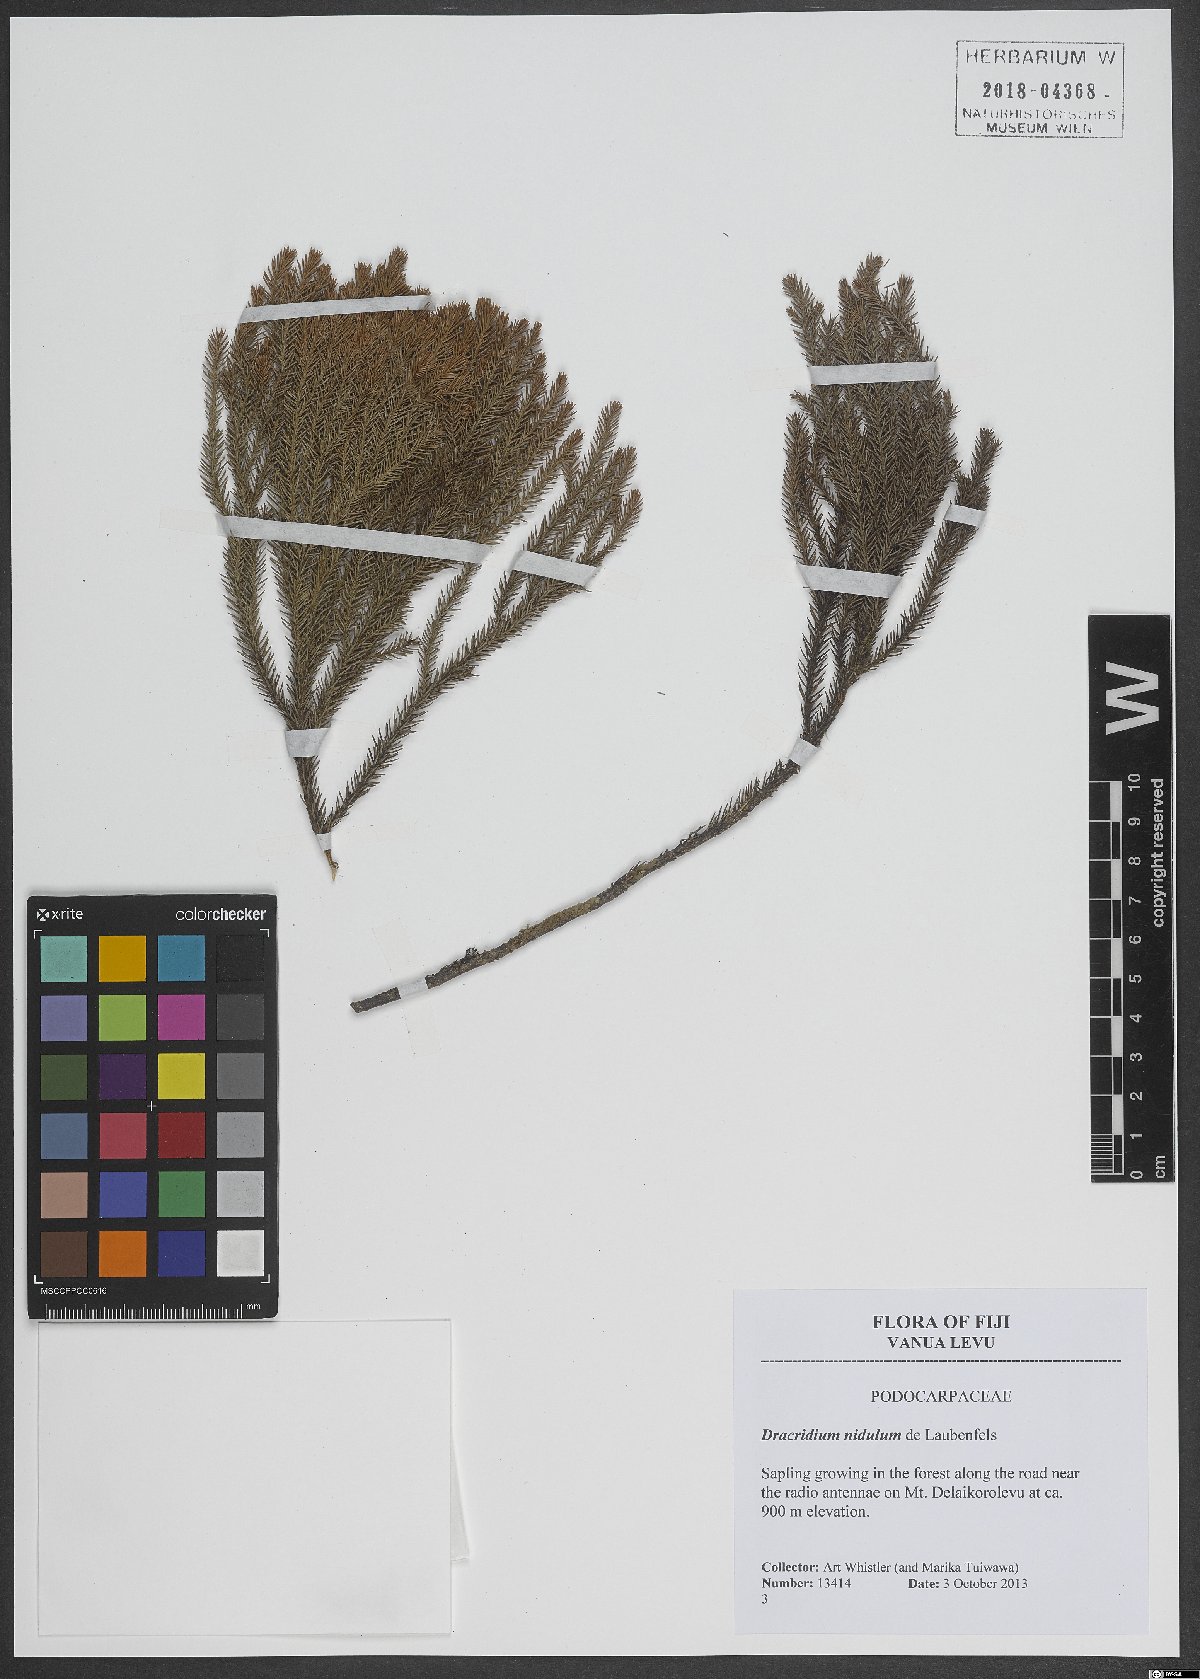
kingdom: Plantae
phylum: Tracheophyta
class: Pinopsida
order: Pinales
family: Podocarpaceae
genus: Dacrydium
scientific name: Dacrydium nidulum
